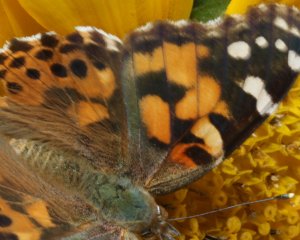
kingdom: Animalia
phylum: Arthropoda
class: Insecta
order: Lepidoptera
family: Nymphalidae
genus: Vanessa
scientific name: Vanessa cardui
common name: Painted Lady
